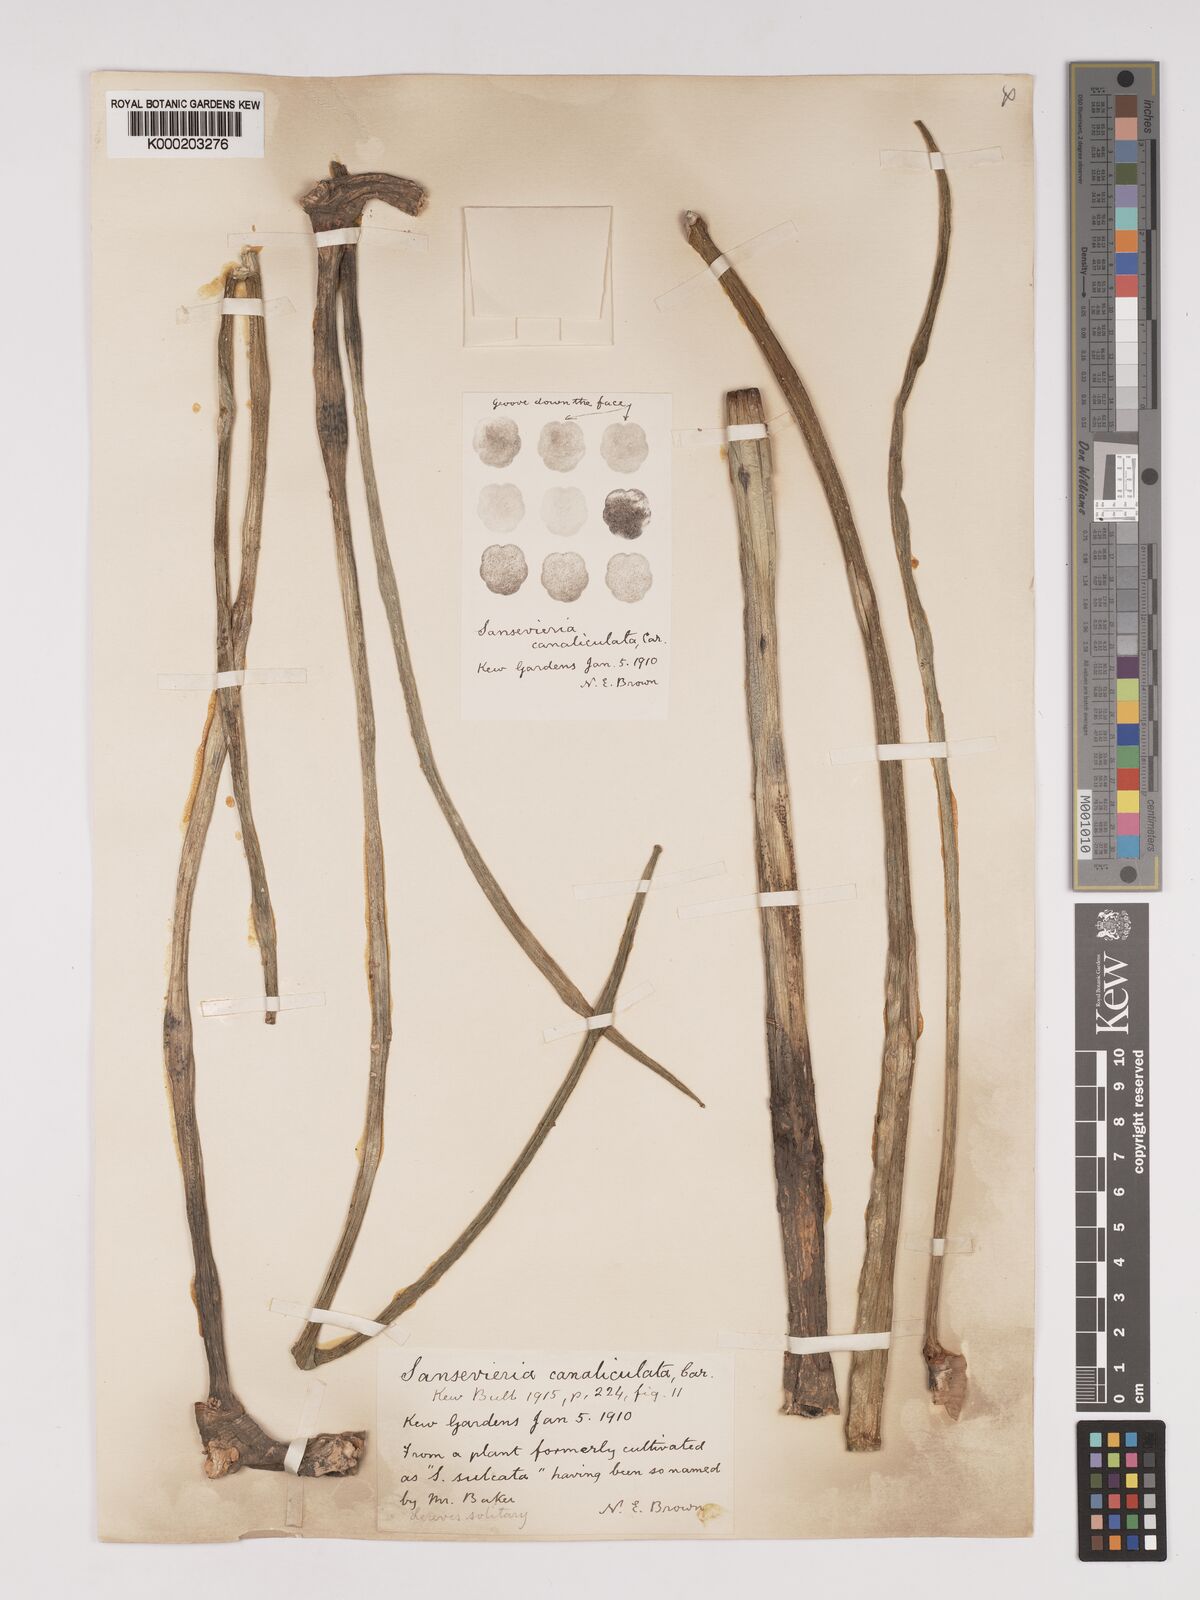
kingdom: Plantae
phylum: Tracheophyta
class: Liliopsida
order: Asparagales
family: Asparagaceae
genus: Dracaena
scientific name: Dracaena
